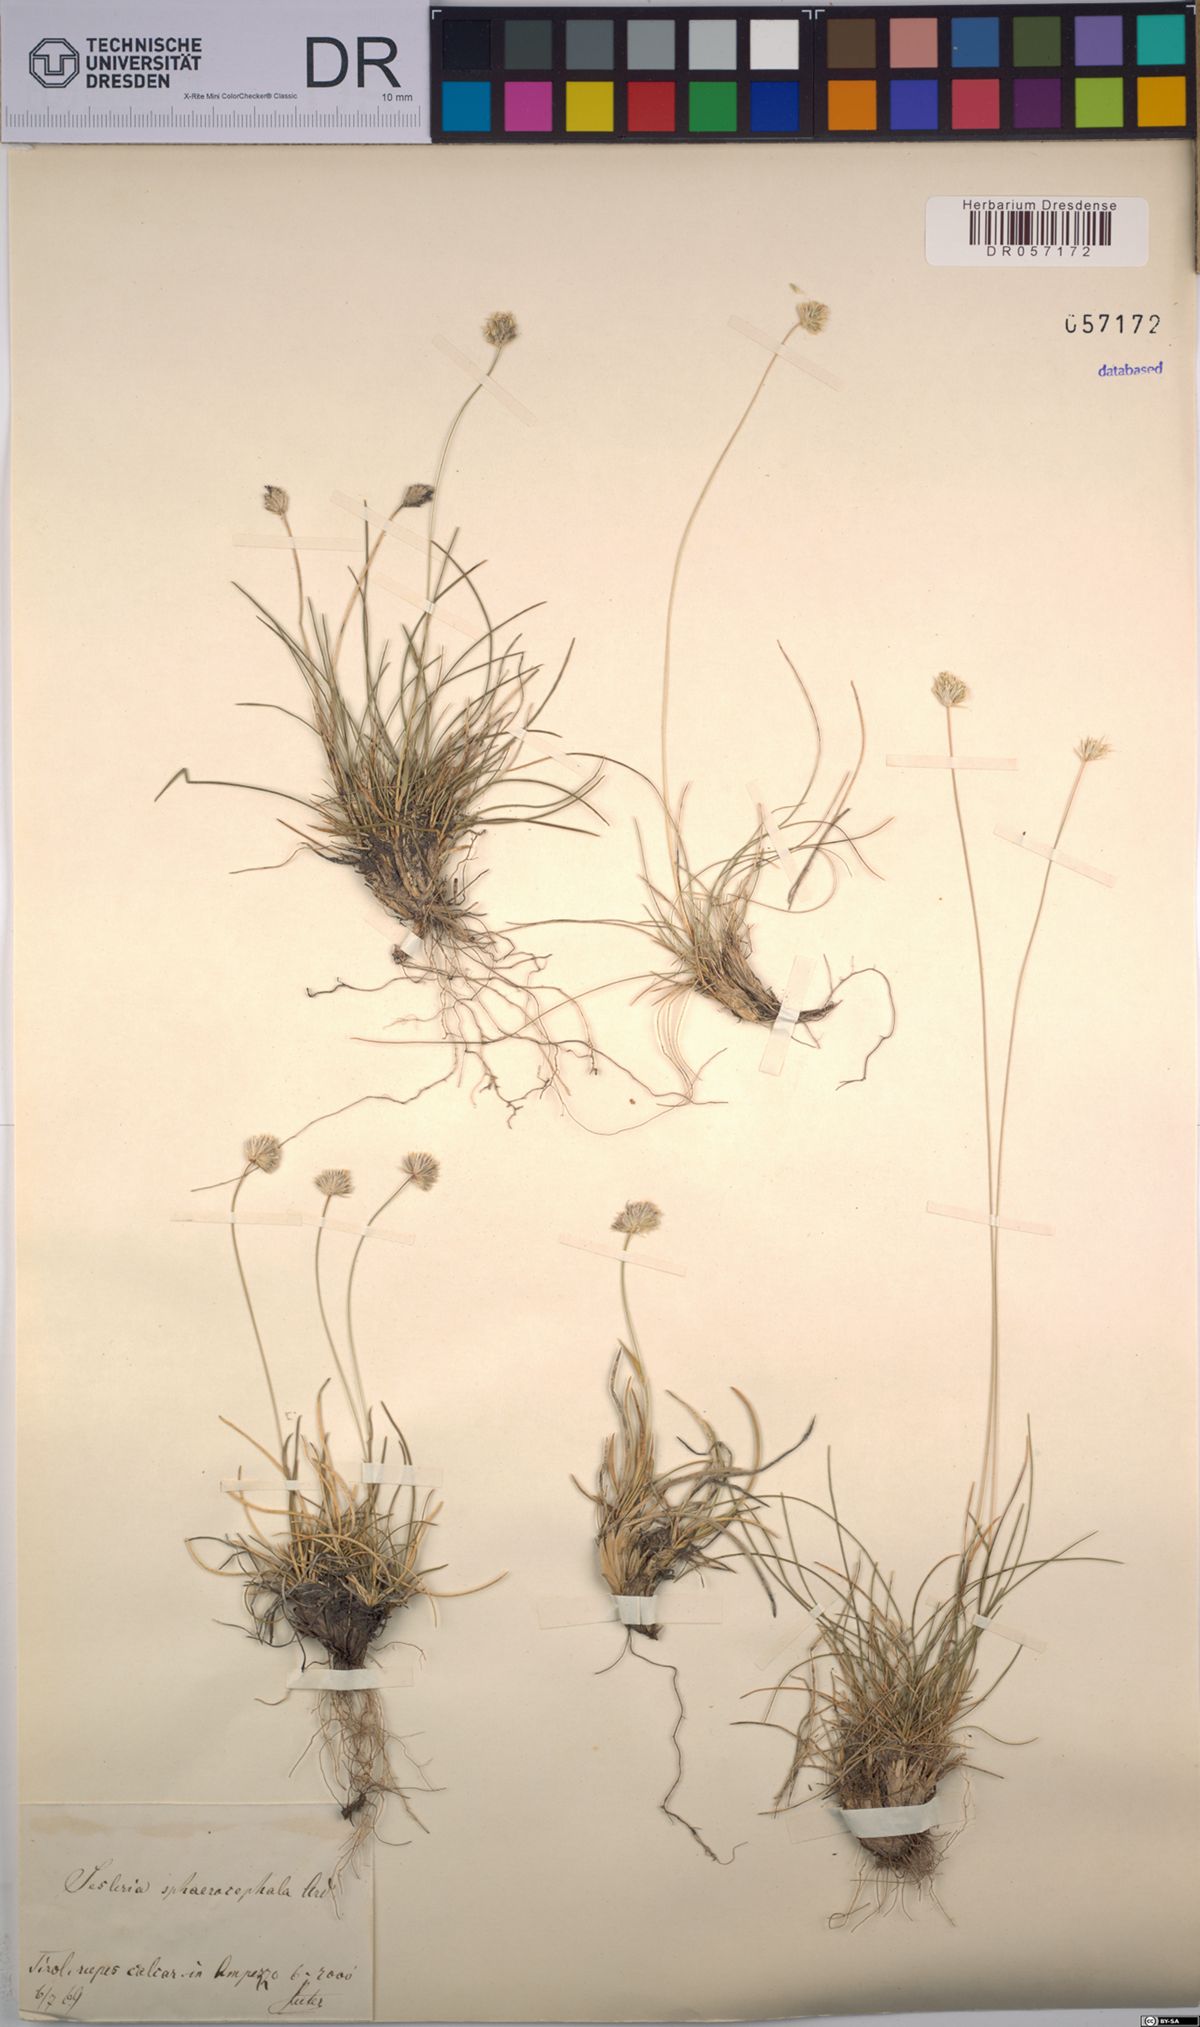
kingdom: Plantae
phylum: Tracheophyta
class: Liliopsida
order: Poales
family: Poaceae
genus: Sesleriella
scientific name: Sesleriella sphaerocephala
